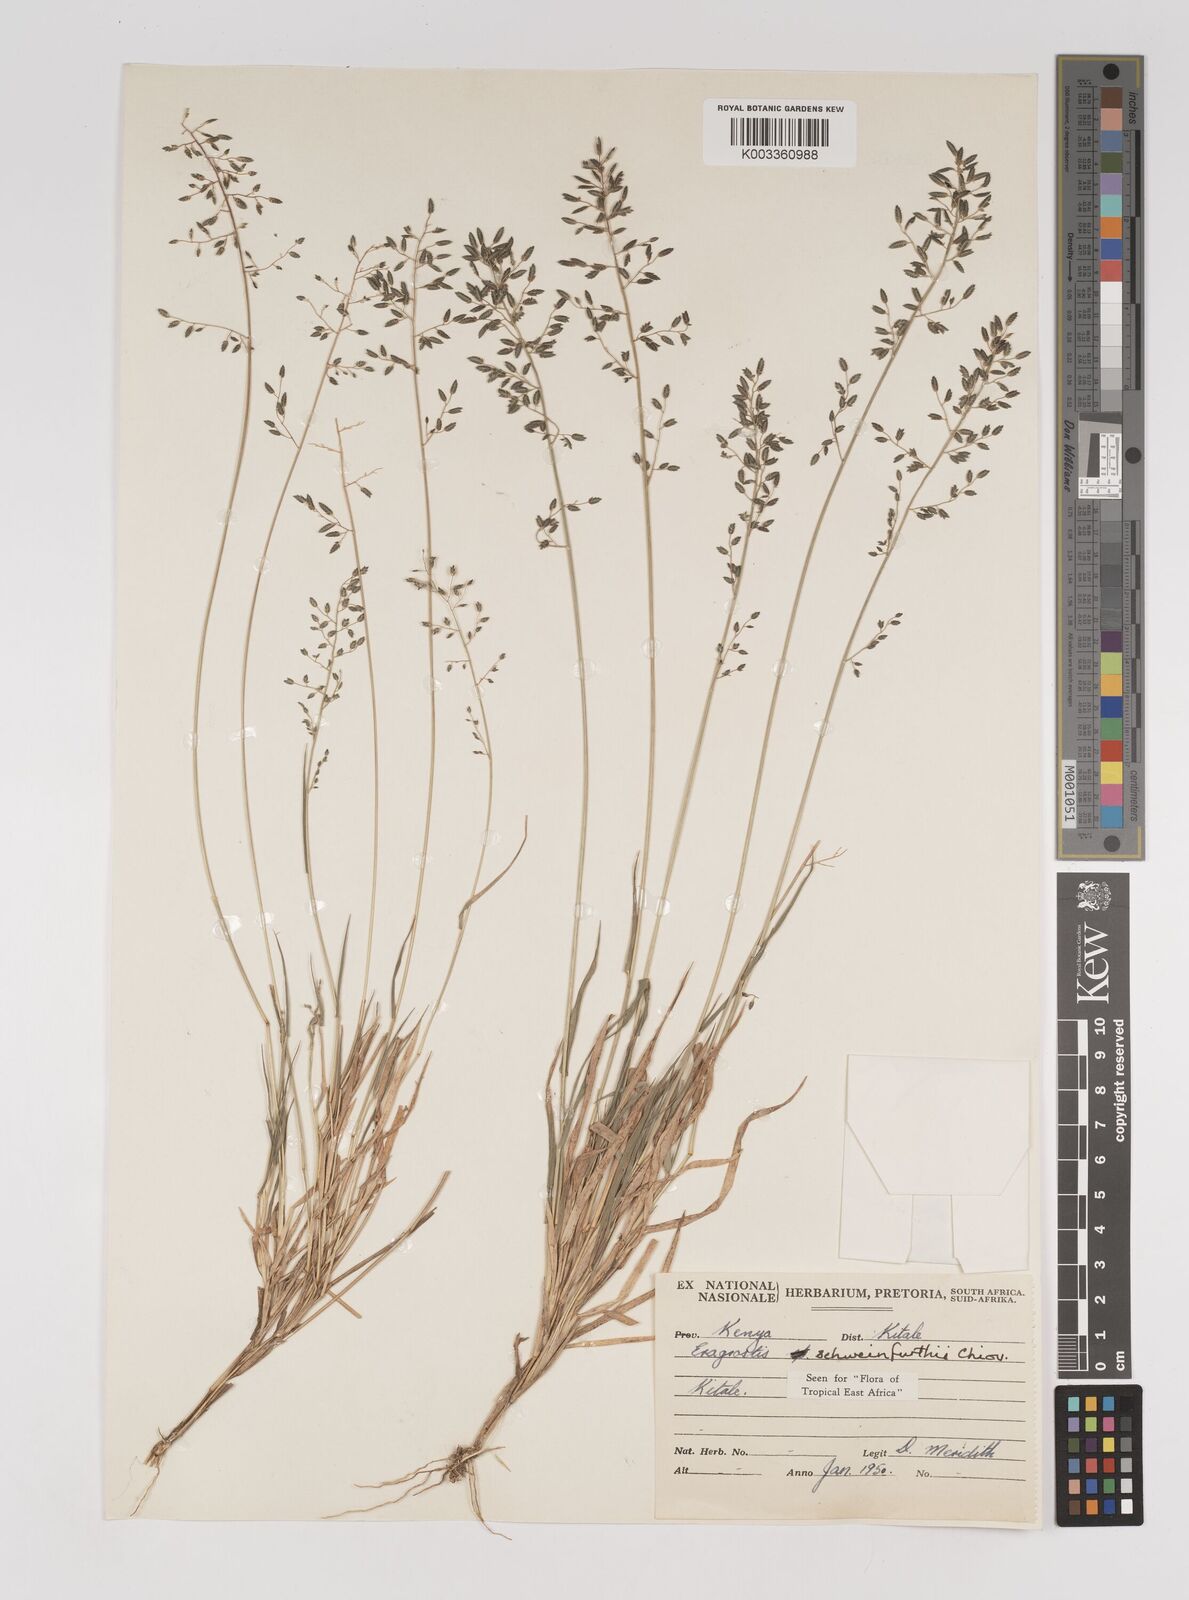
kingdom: Plantae
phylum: Tracheophyta
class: Liliopsida
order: Poales
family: Poaceae
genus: Eragrostis
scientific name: Eragrostis schweinfurthii
